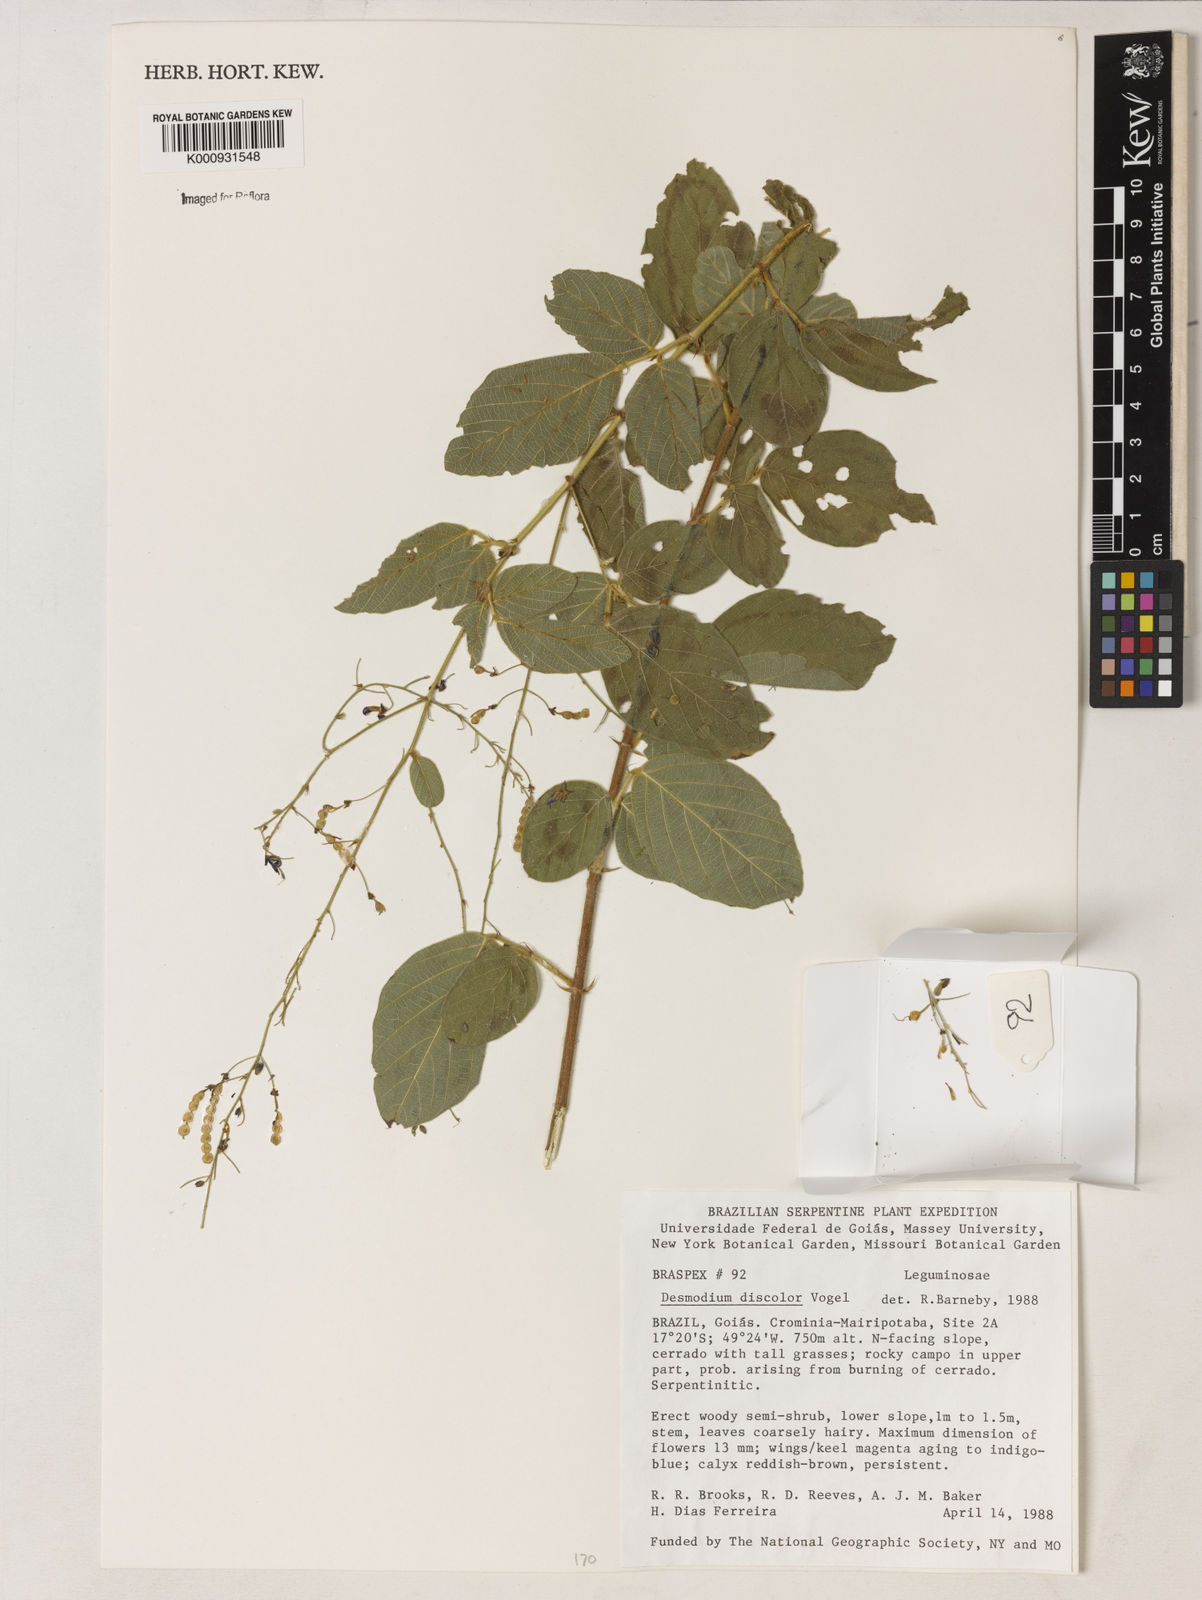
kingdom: Plantae
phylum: Tracheophyta
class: Magnoliopsida
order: Fabales
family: Fabaceae
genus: Desmodium
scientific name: Desmodium subsecundum
